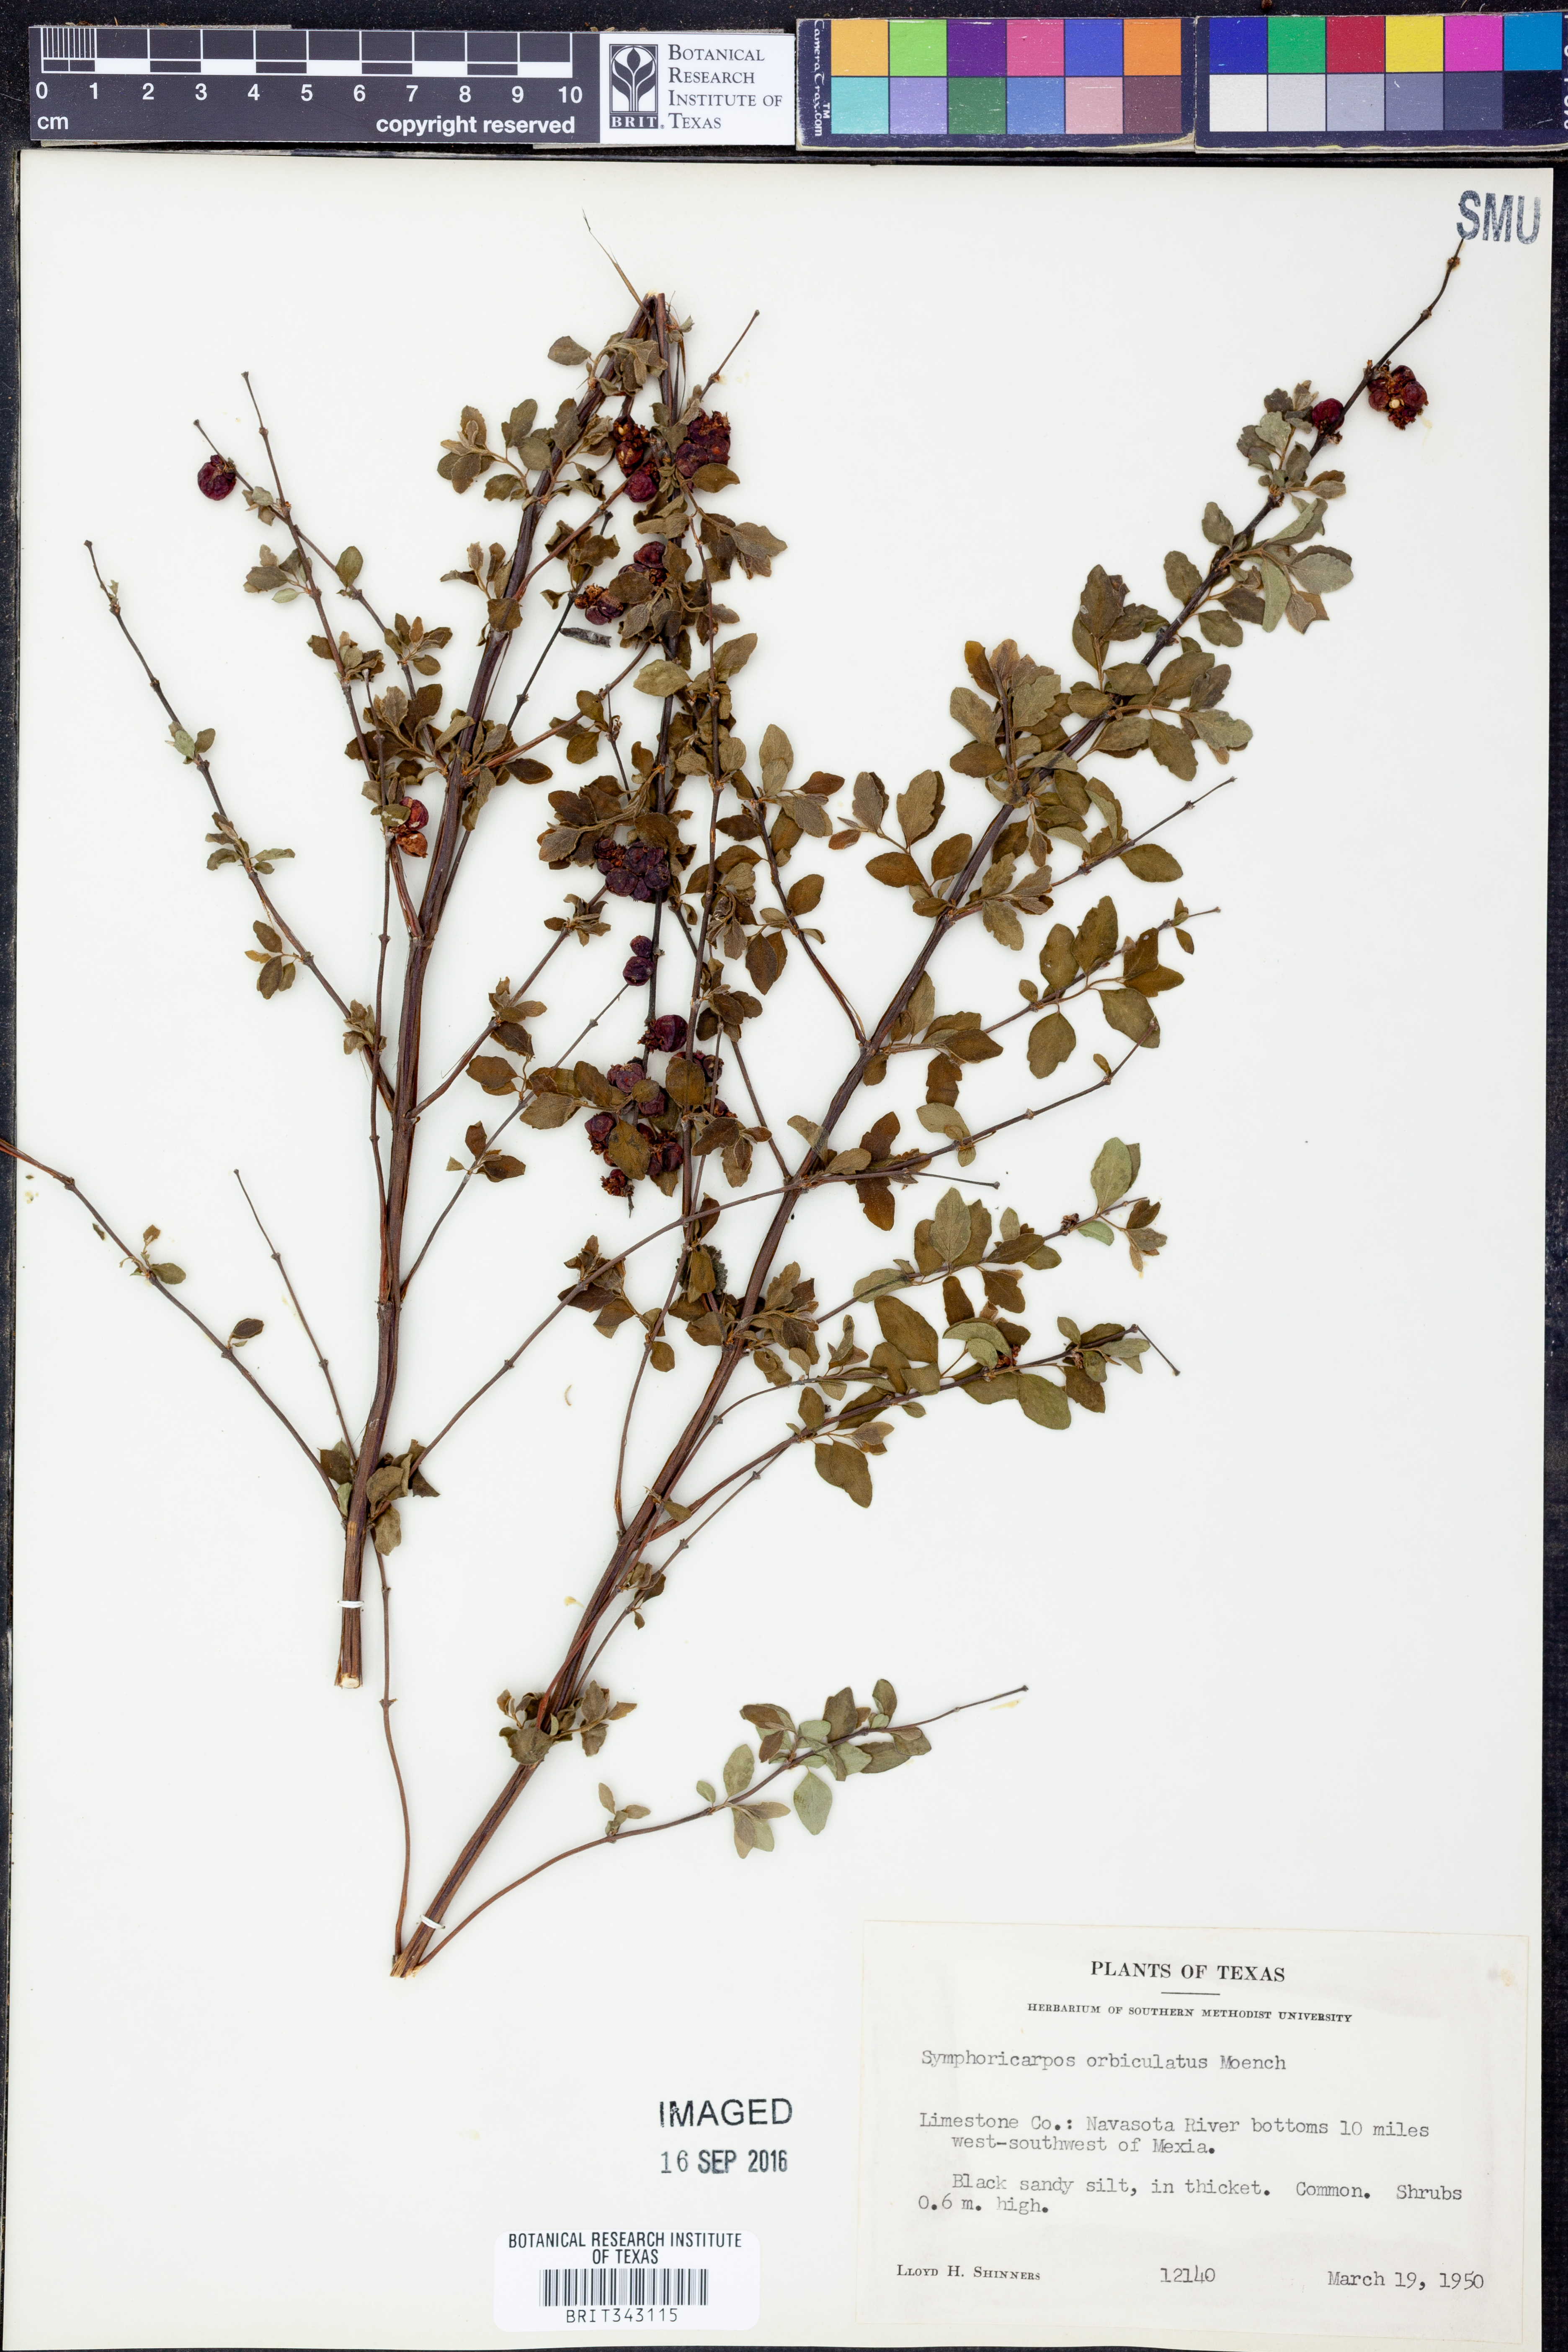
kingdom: Plantae
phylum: Tracheophyta
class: Magnoliopsida
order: Dipsacales
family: Caprifoliaceae
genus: Symphoricarpos
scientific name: Symphoricarpos orbiculatus
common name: Coralberry
